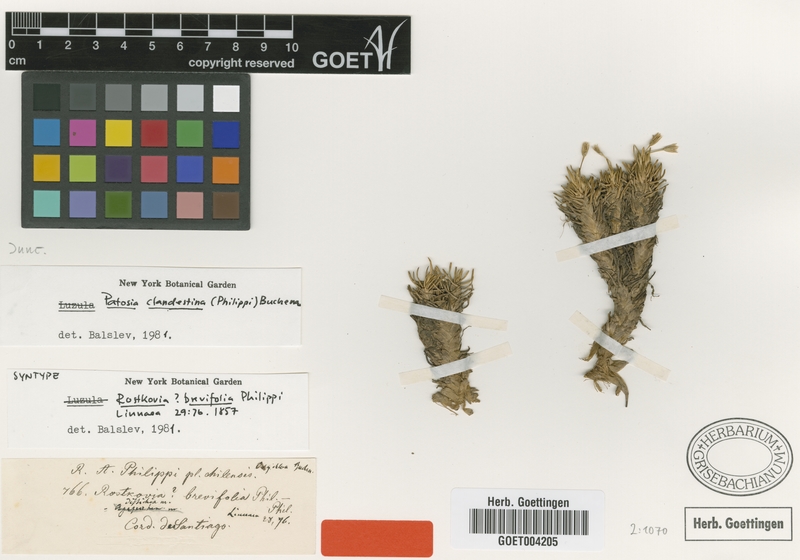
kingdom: Plantae
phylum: Tracheophyta
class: Liliopsida
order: Poales
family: Juncaceae
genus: Patosia
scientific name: Patosia clandestina
